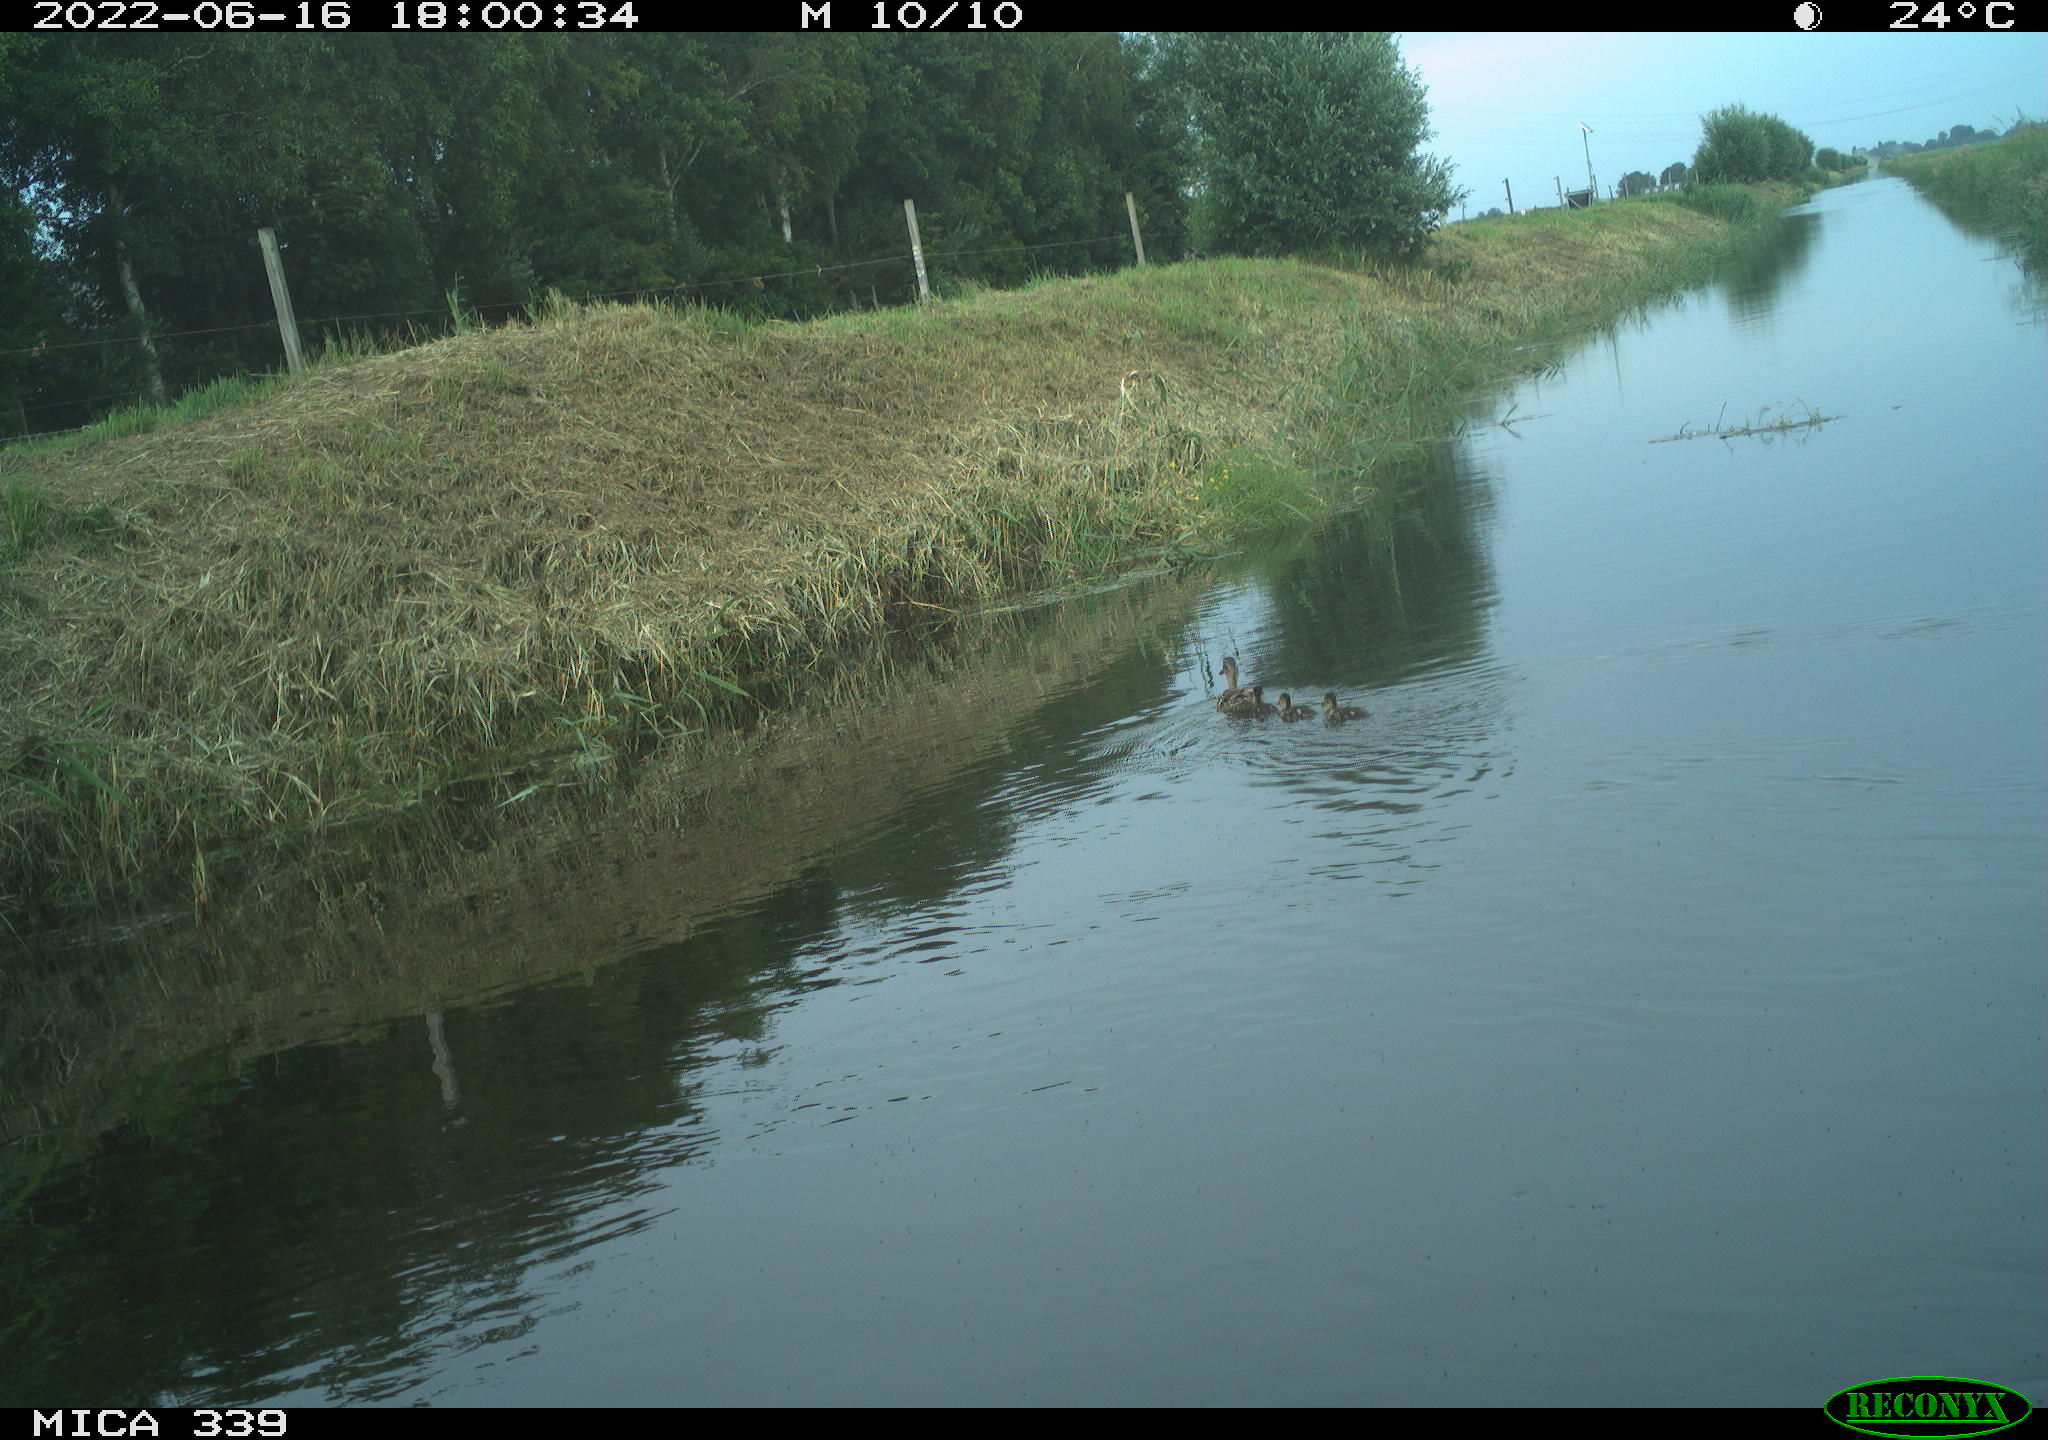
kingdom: Animalia
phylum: Chordata
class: Aves
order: Anseriformes
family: Anatidae
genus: Anas
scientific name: Anas platyrhynchos
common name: Mallard
